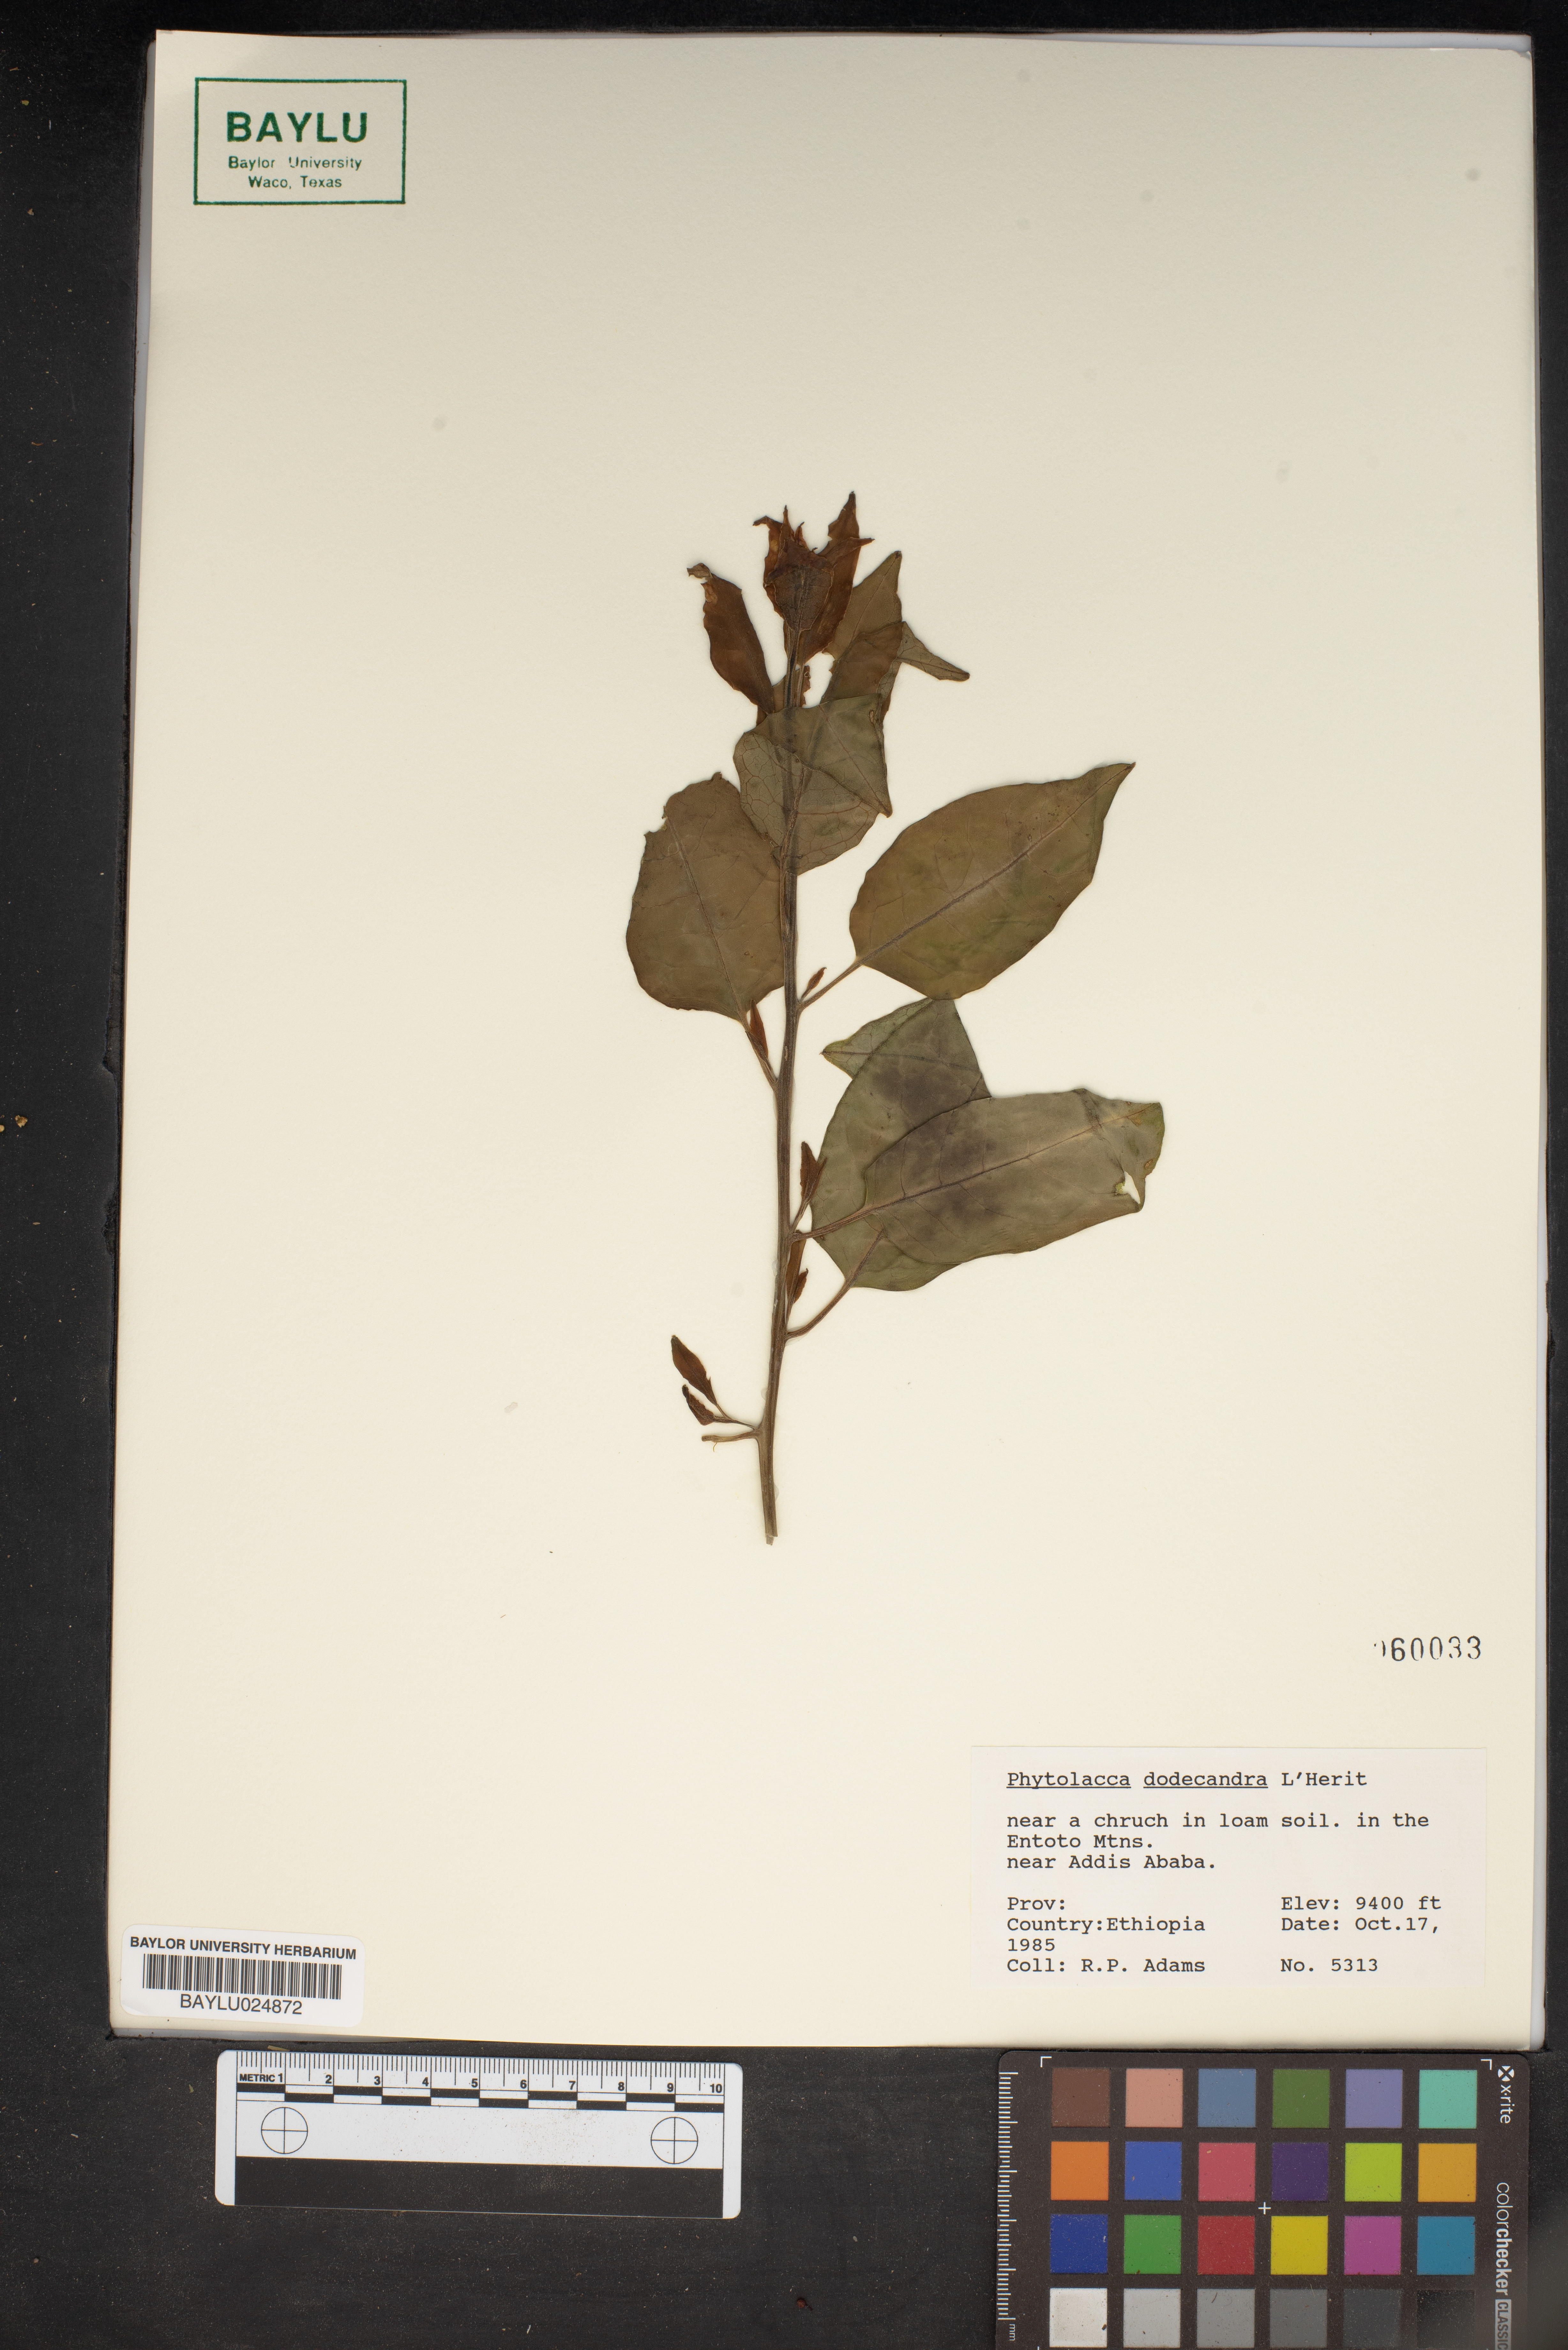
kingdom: Plantae
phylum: Tracheophyta
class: Magnoliopsida
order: Caryophyllales
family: Phytolaccaceae
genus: Phytolacca
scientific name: Phytolacca dodecandra
